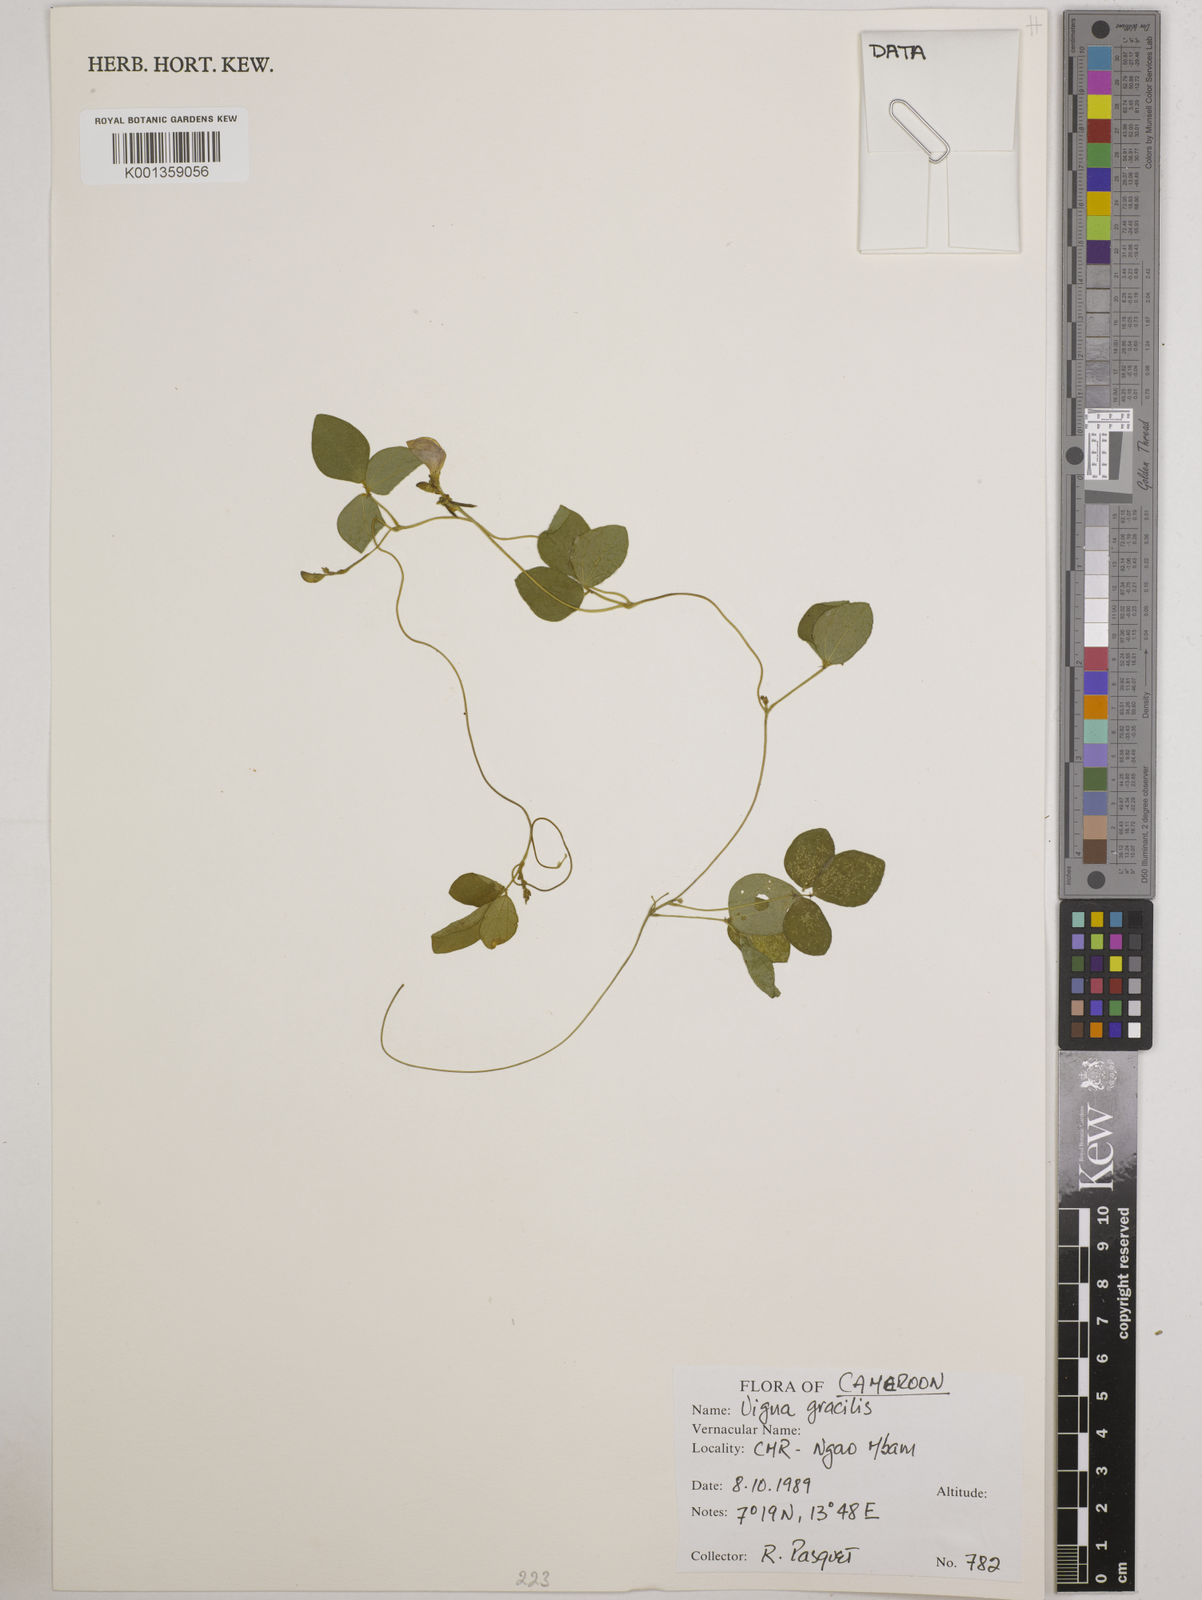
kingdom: Plantae
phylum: Tracheophyta
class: Magnoliopsida
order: Fabales
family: Fabaceae
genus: Vigna
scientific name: Vigna gracilis
